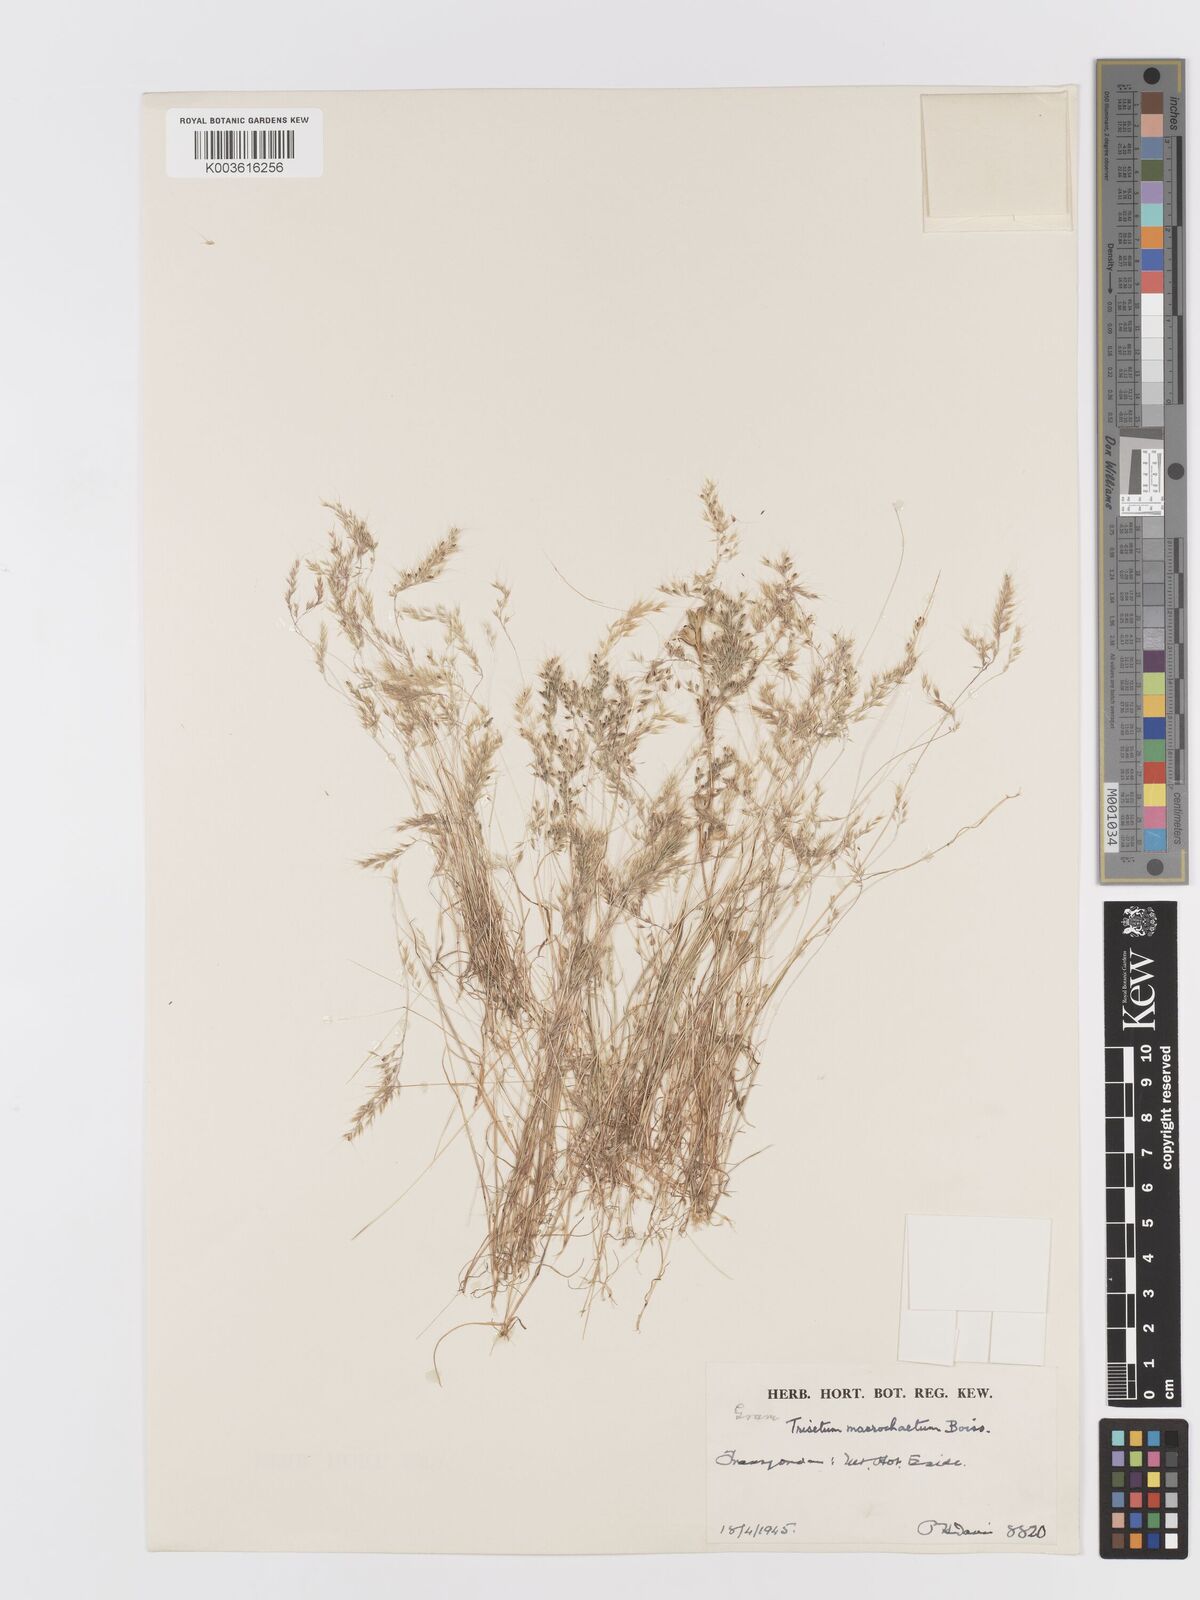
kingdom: Plantae
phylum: Tracheophyta
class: Liliopsida
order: Poales
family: Poaceae
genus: Trisetaria
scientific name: Trisetaria macrochaeta
